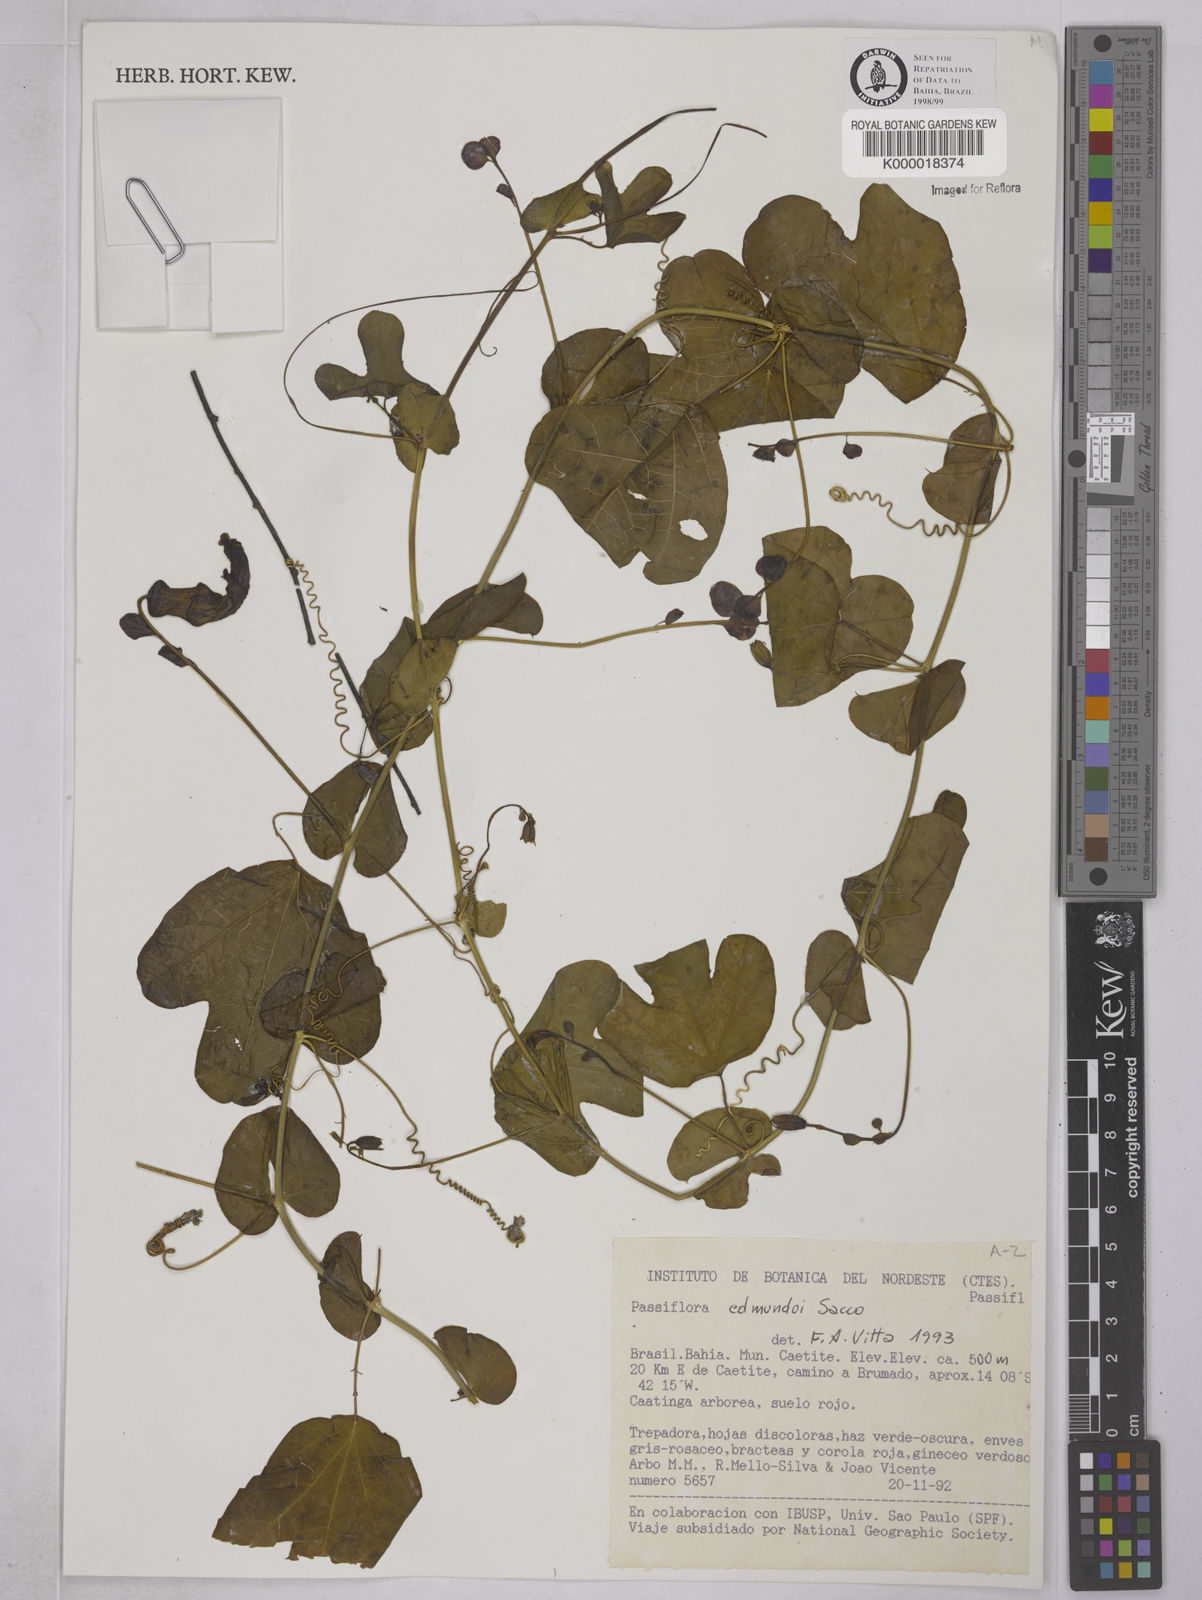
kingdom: Plantae
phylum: Tracheophyta
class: Magnoliopsida
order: Malpighiales
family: Passifloraceae
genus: Passiflora
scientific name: Passiflora edmundoi
